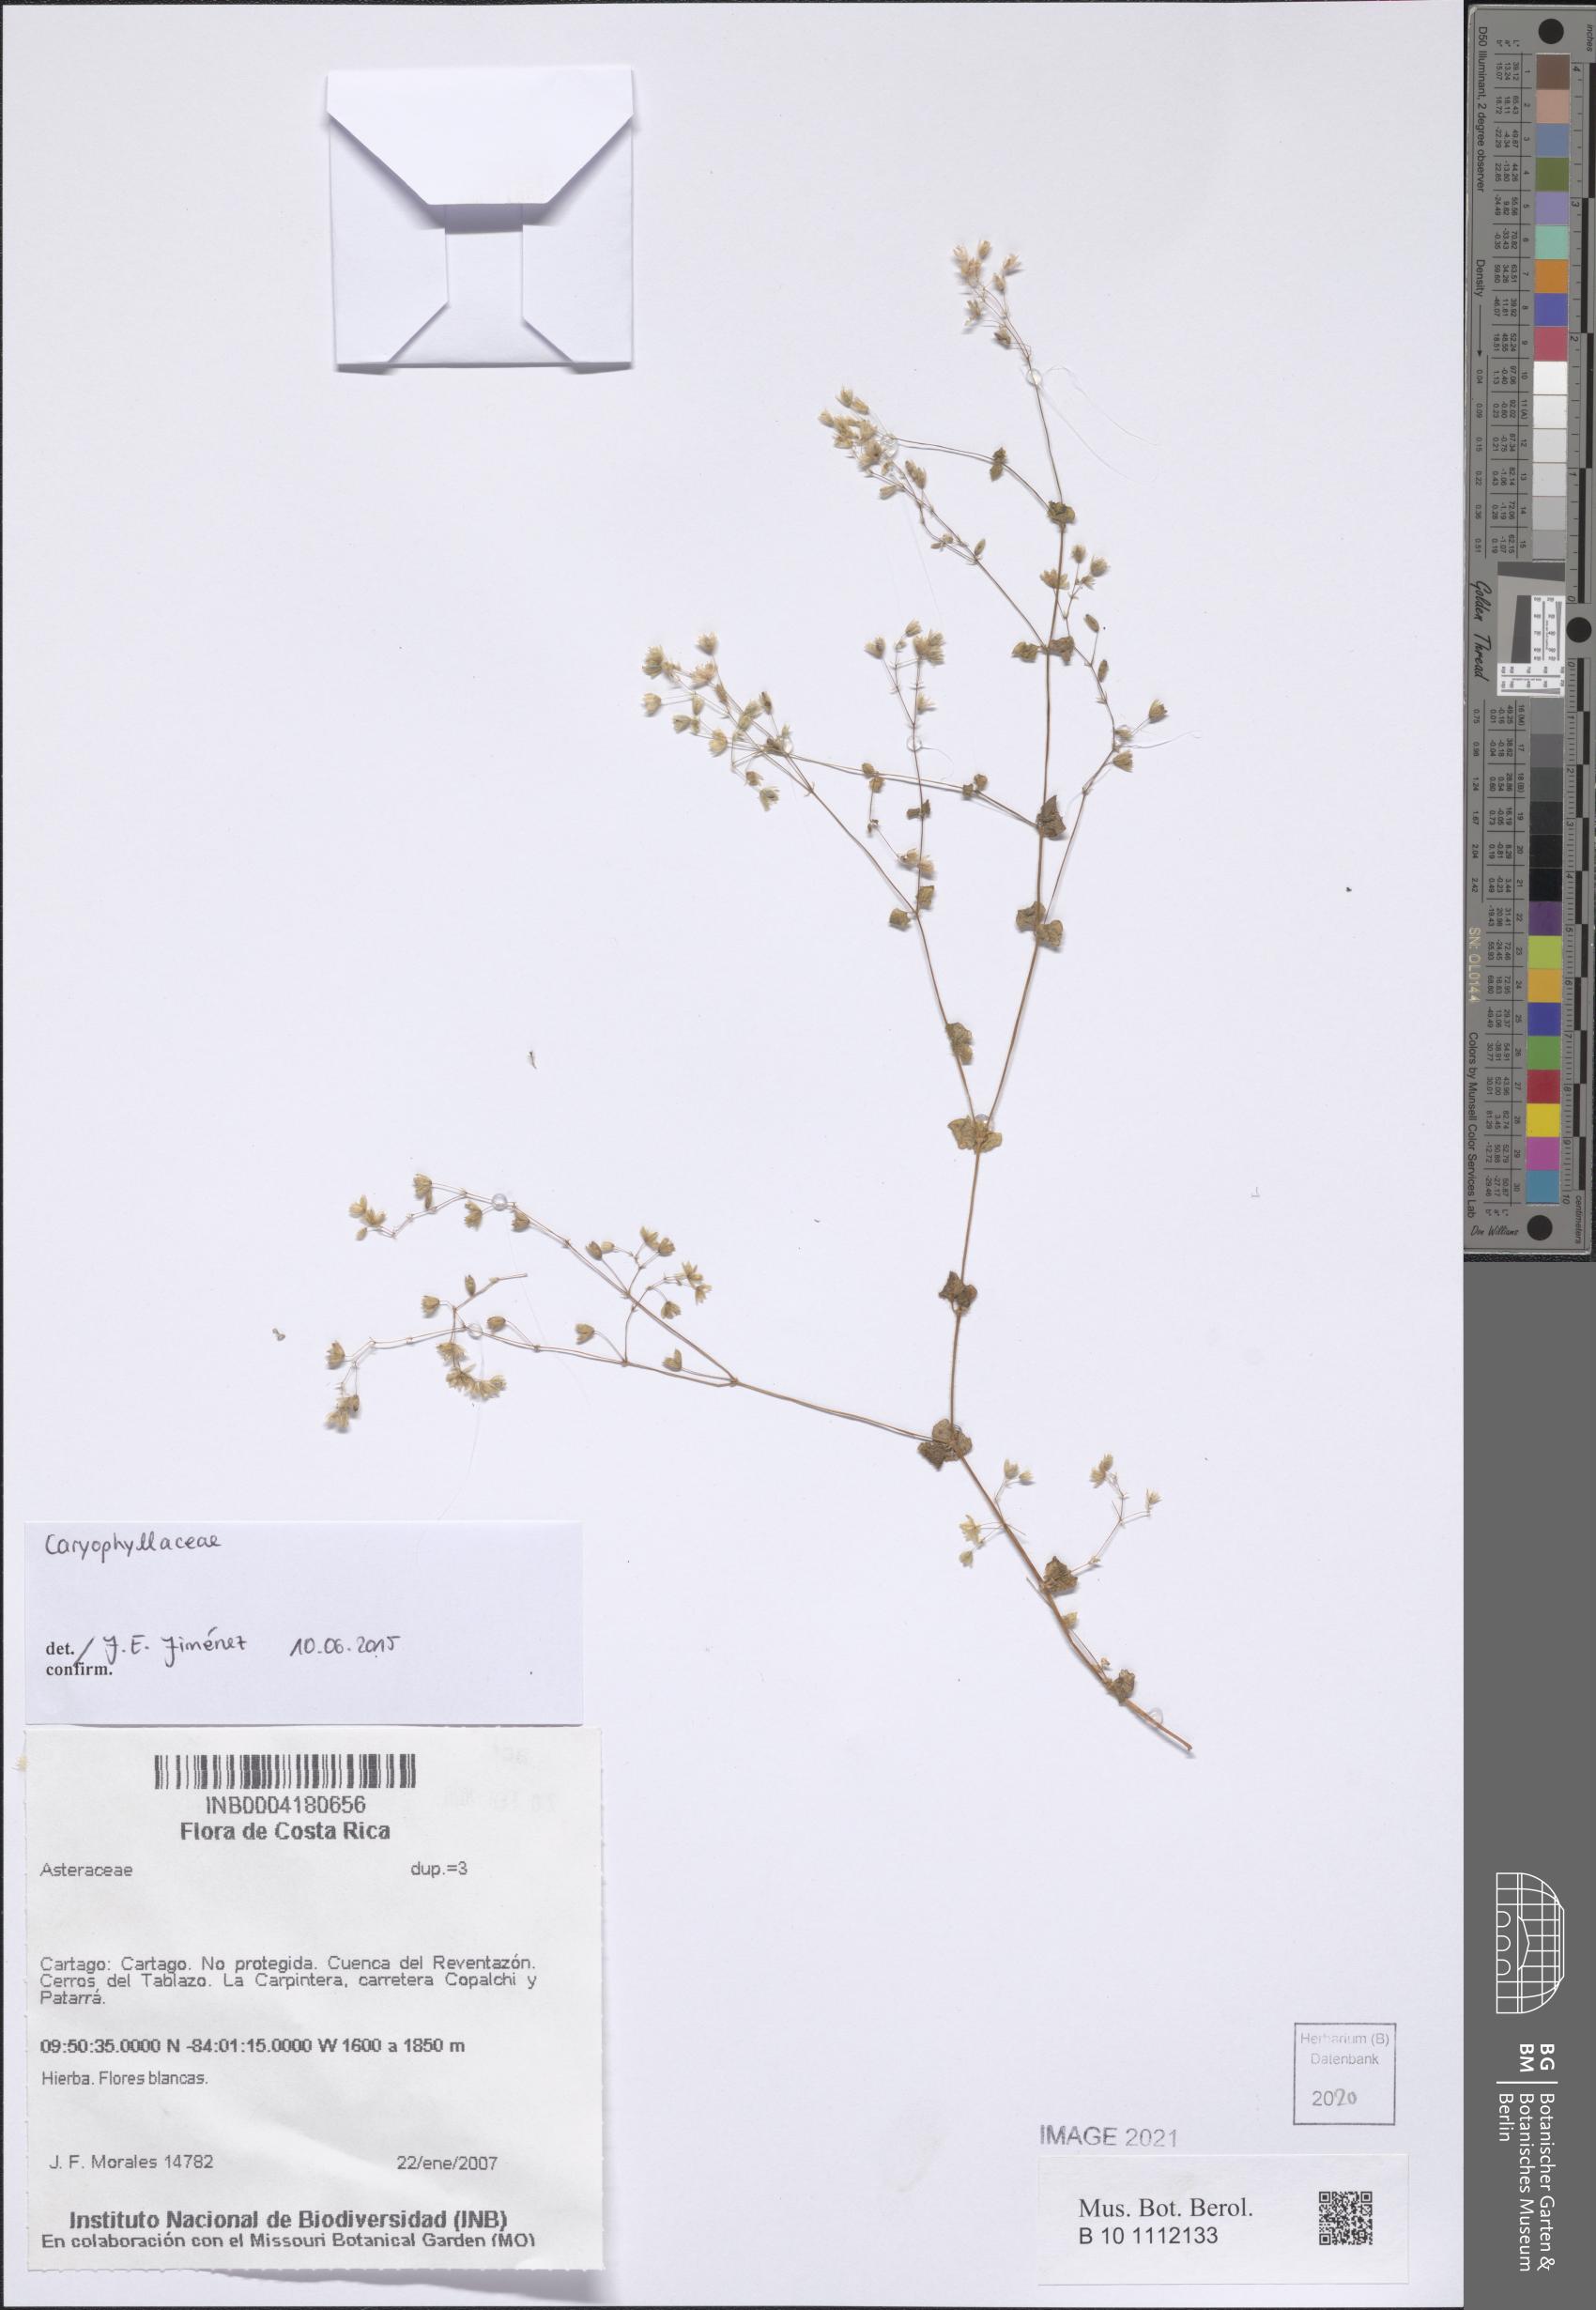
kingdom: Plantae
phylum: Tracheophyta
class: Magnoliopsida
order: Caryophyllales
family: Caryophyllaceae
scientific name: Caryophyllaceae
